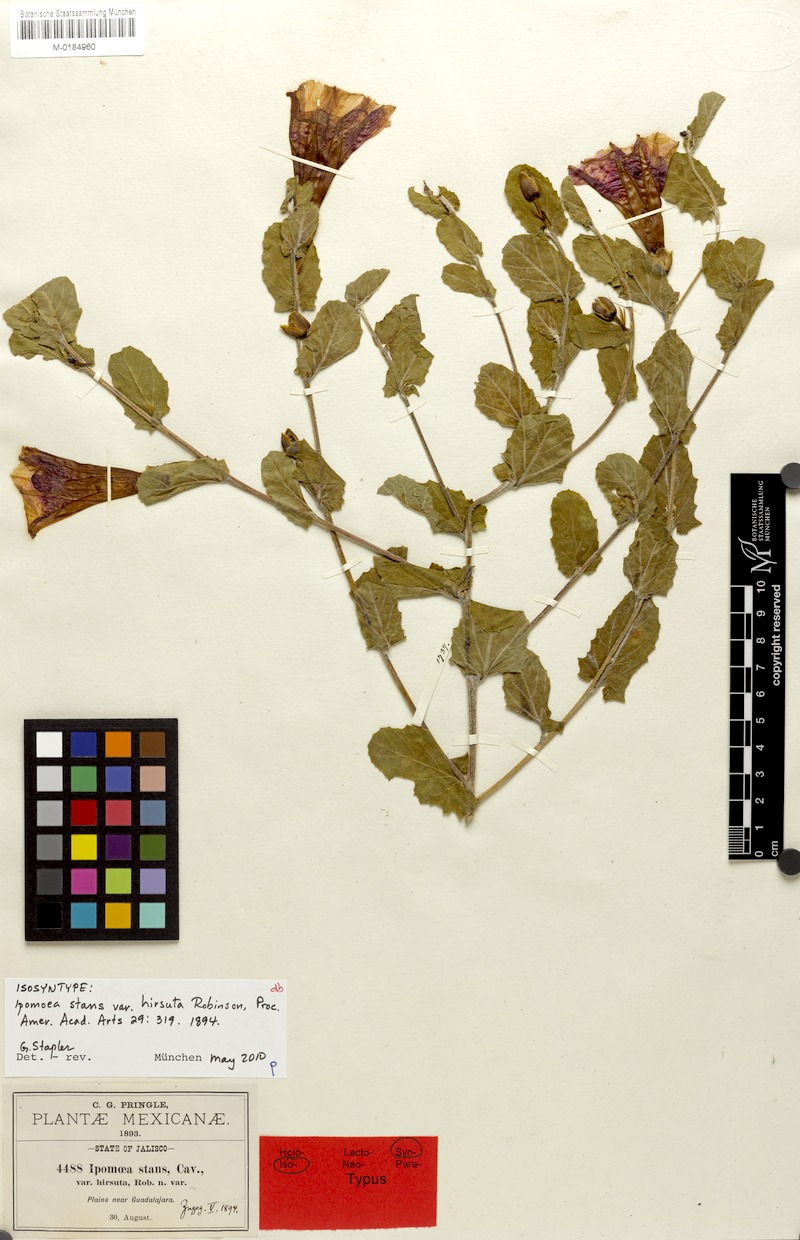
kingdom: Plantae
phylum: Tracheophyta
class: Magnoliopsida
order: Solanales
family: Convolvulaceae
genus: Ipomoea
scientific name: Ipomoea stans
